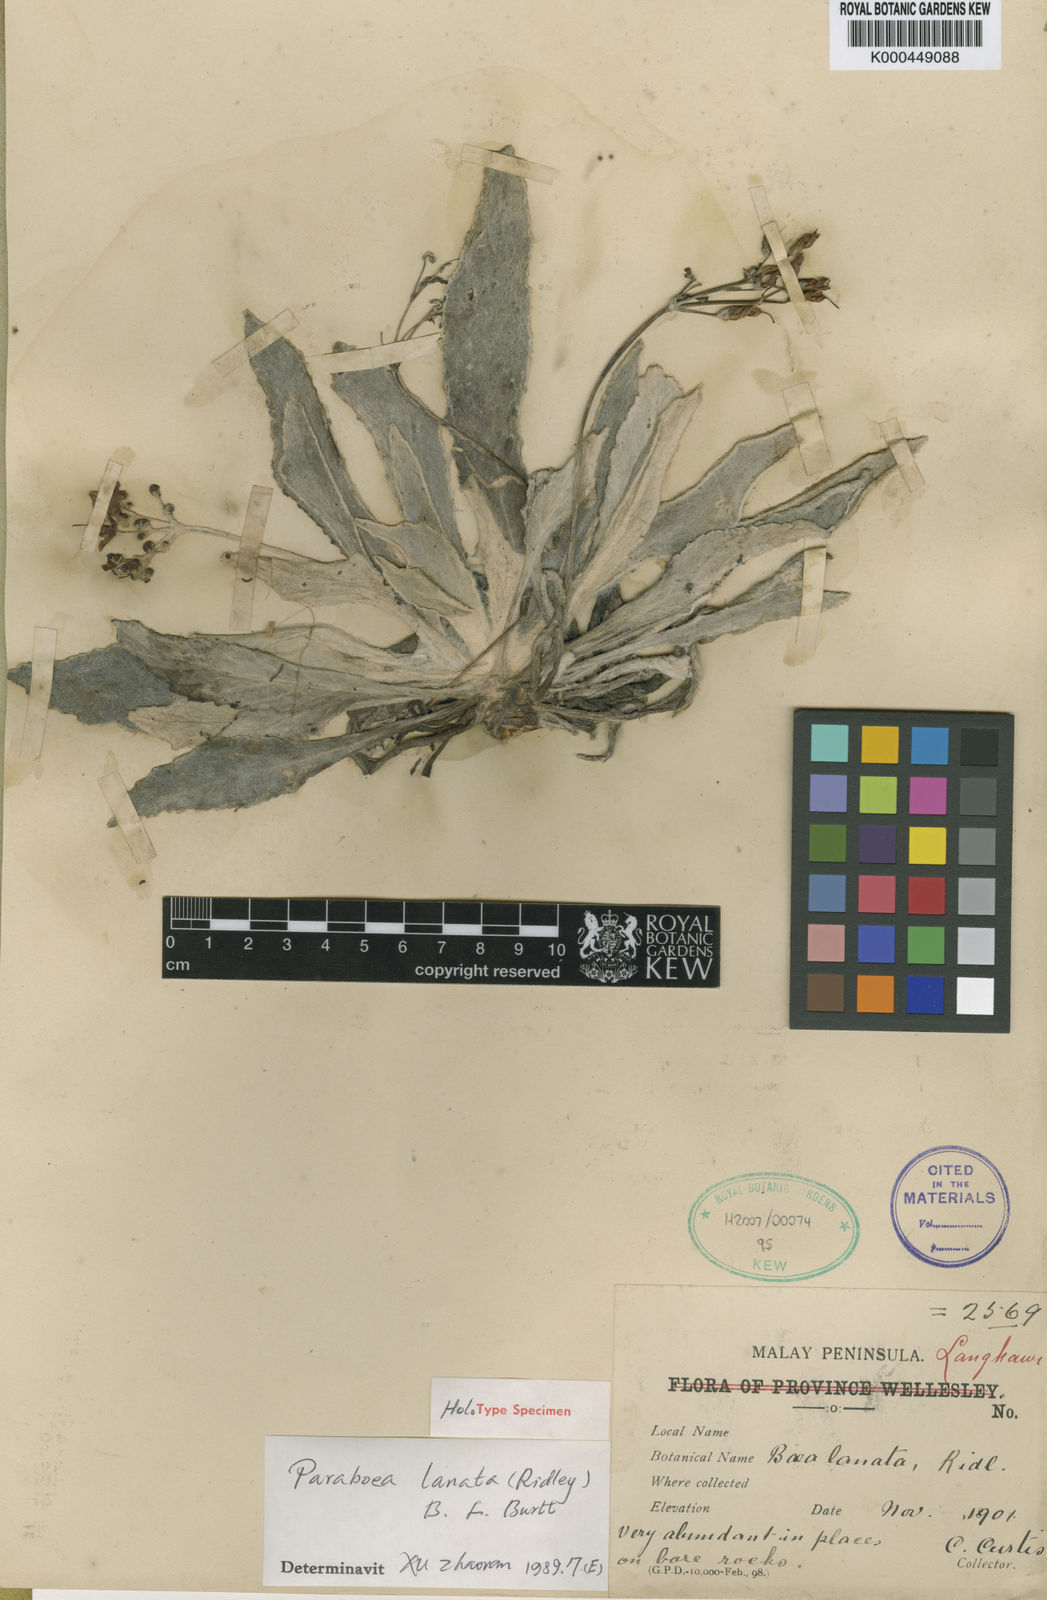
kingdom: Plantae
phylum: Tracheophyta
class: Magnoliopsida
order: Lamiales
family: Gesneriaceae
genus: Paraboea
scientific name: Paraboea lanata
